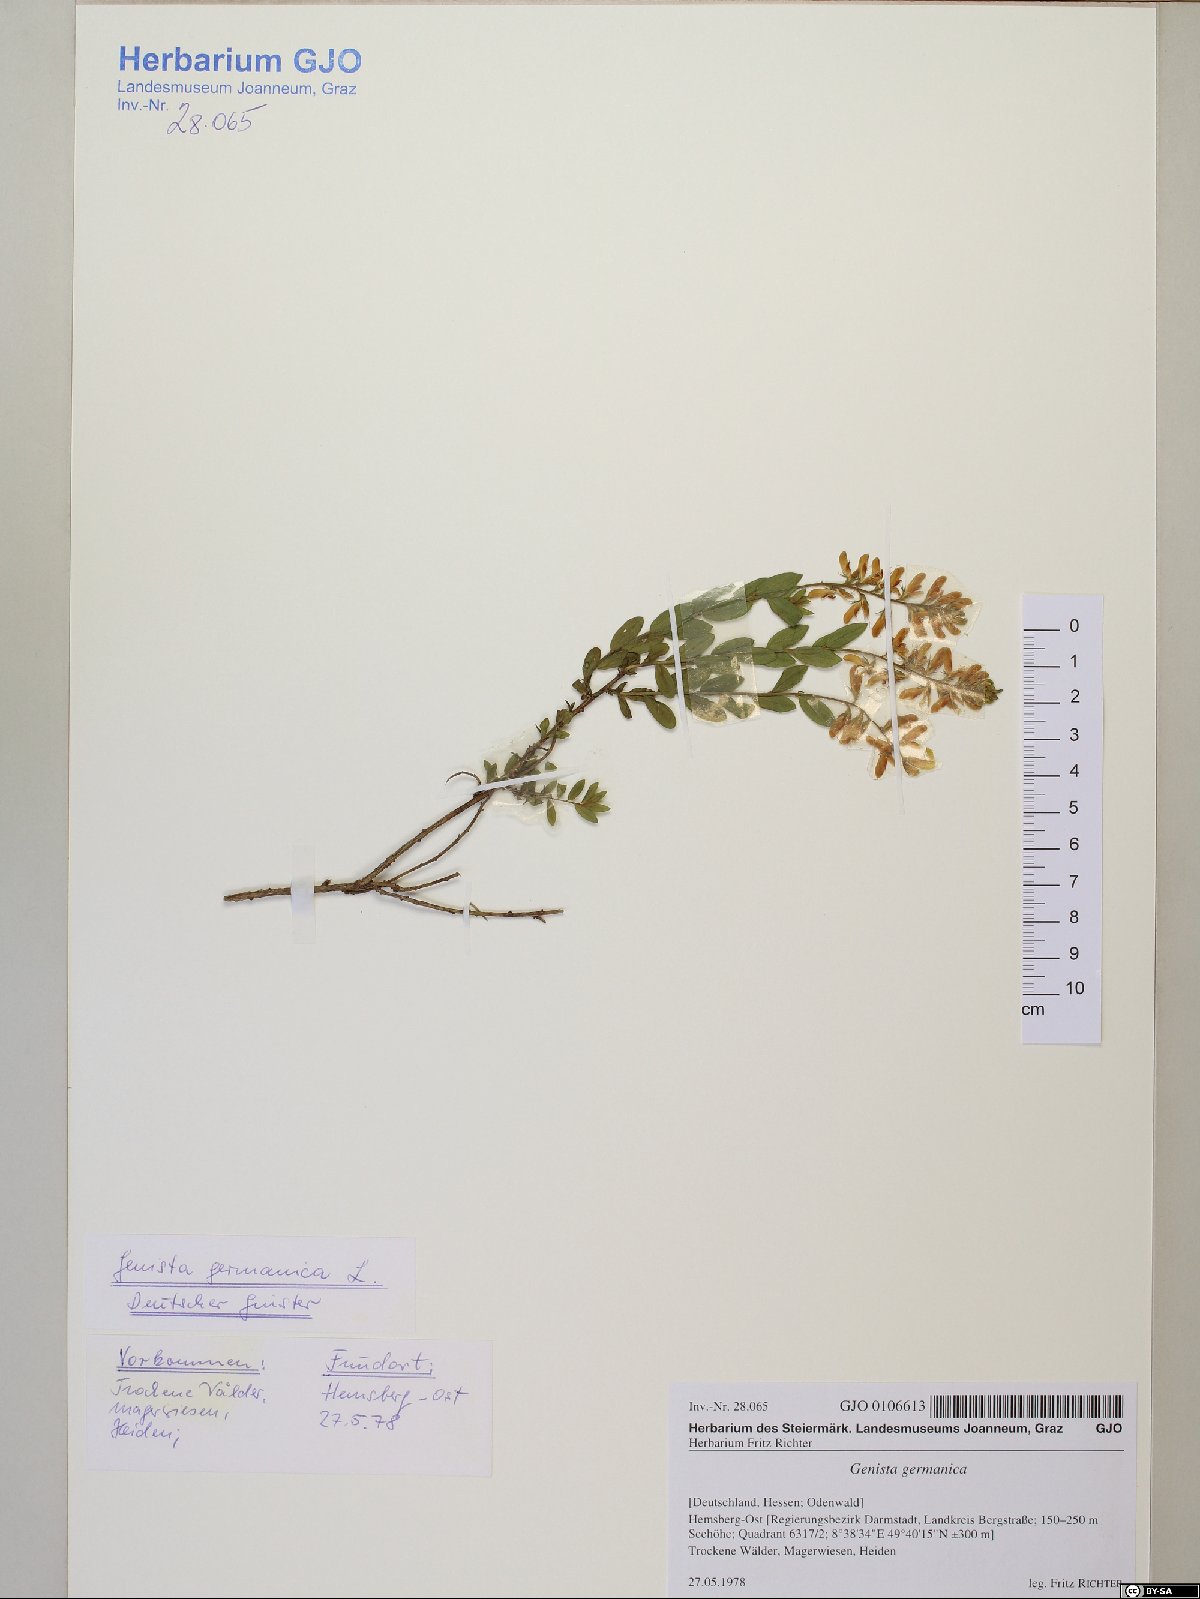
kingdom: Plantae
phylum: Tracheophyta
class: Magnoliopsida
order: Fabales
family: Fabaceae
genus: Genista
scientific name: Genista germanica
